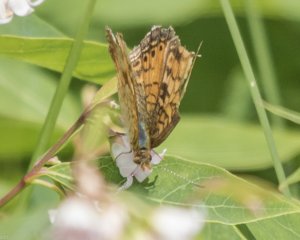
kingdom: Animalia
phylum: Arthropoda
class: Insecta
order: Lepidoptera
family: Nymphalidae
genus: Phyciodes
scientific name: Phyciodes tharos
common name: Northern Crescent
